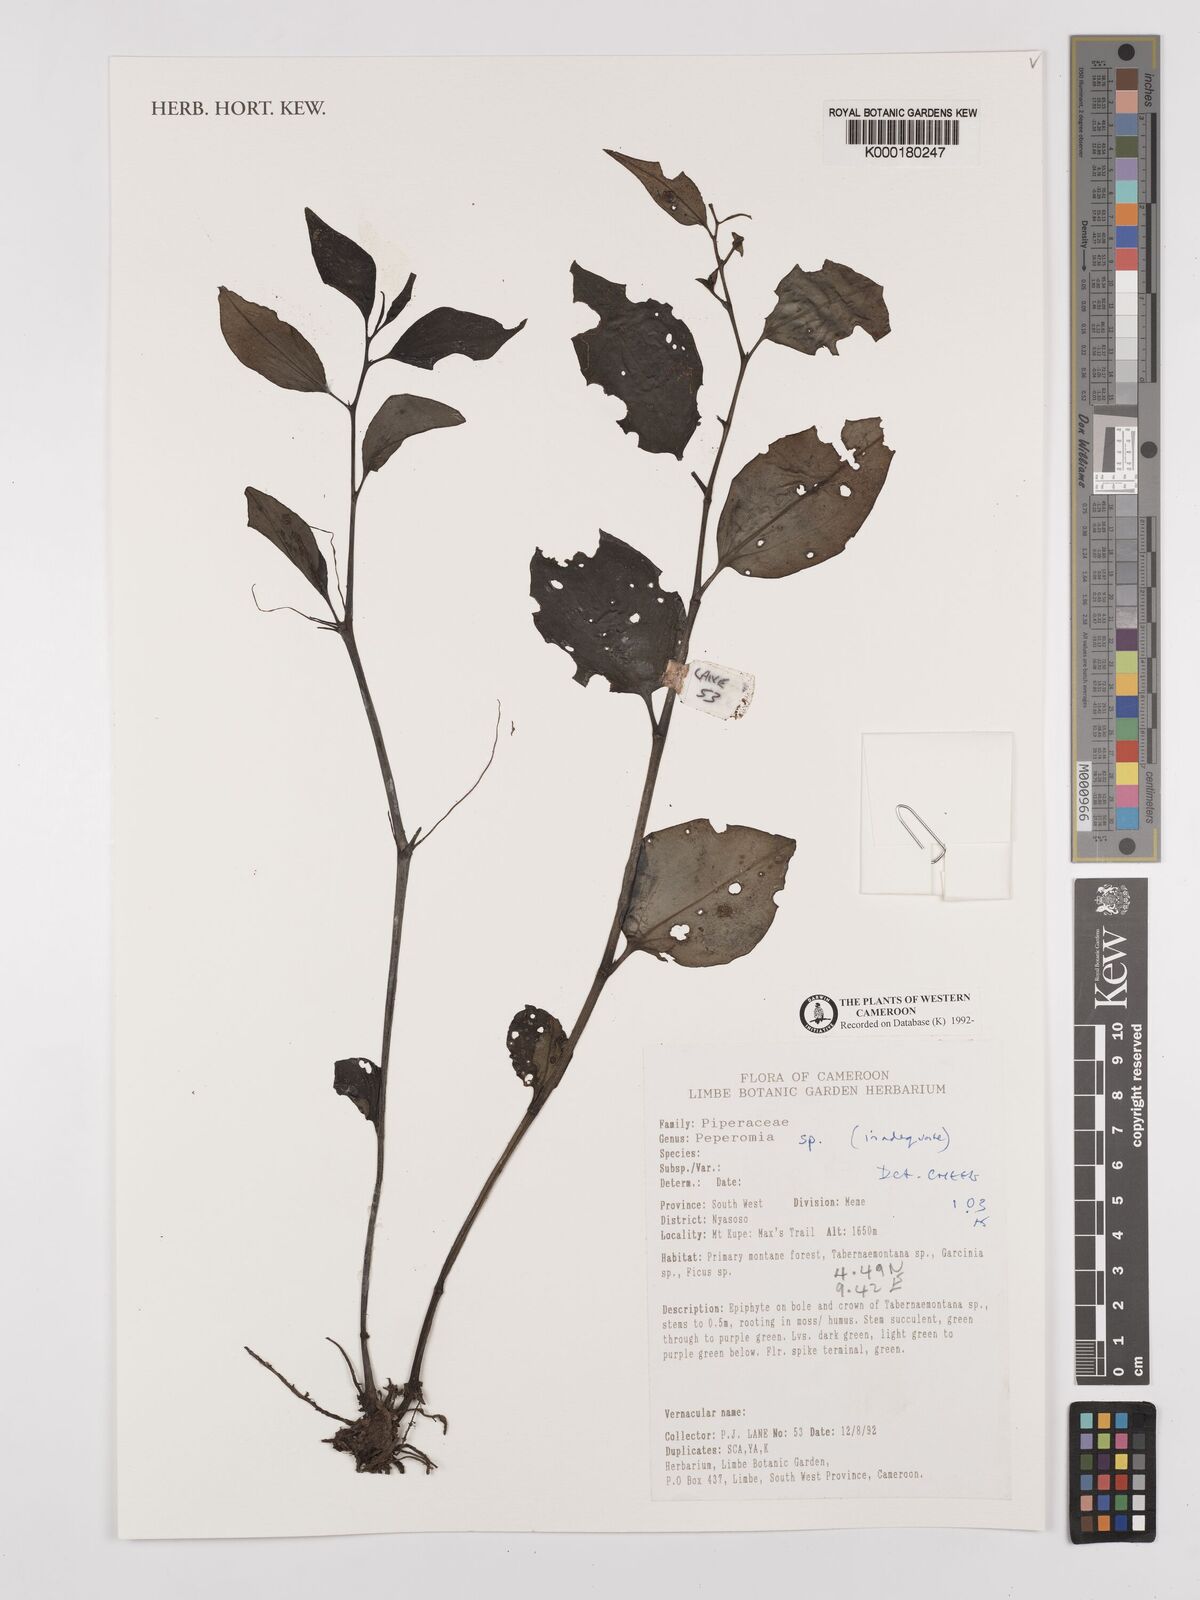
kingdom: Plantae
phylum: Tracheophyta
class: Magnoliopsida
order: Piperales
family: Piperaceae
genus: Peperomia
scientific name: Peperomia
